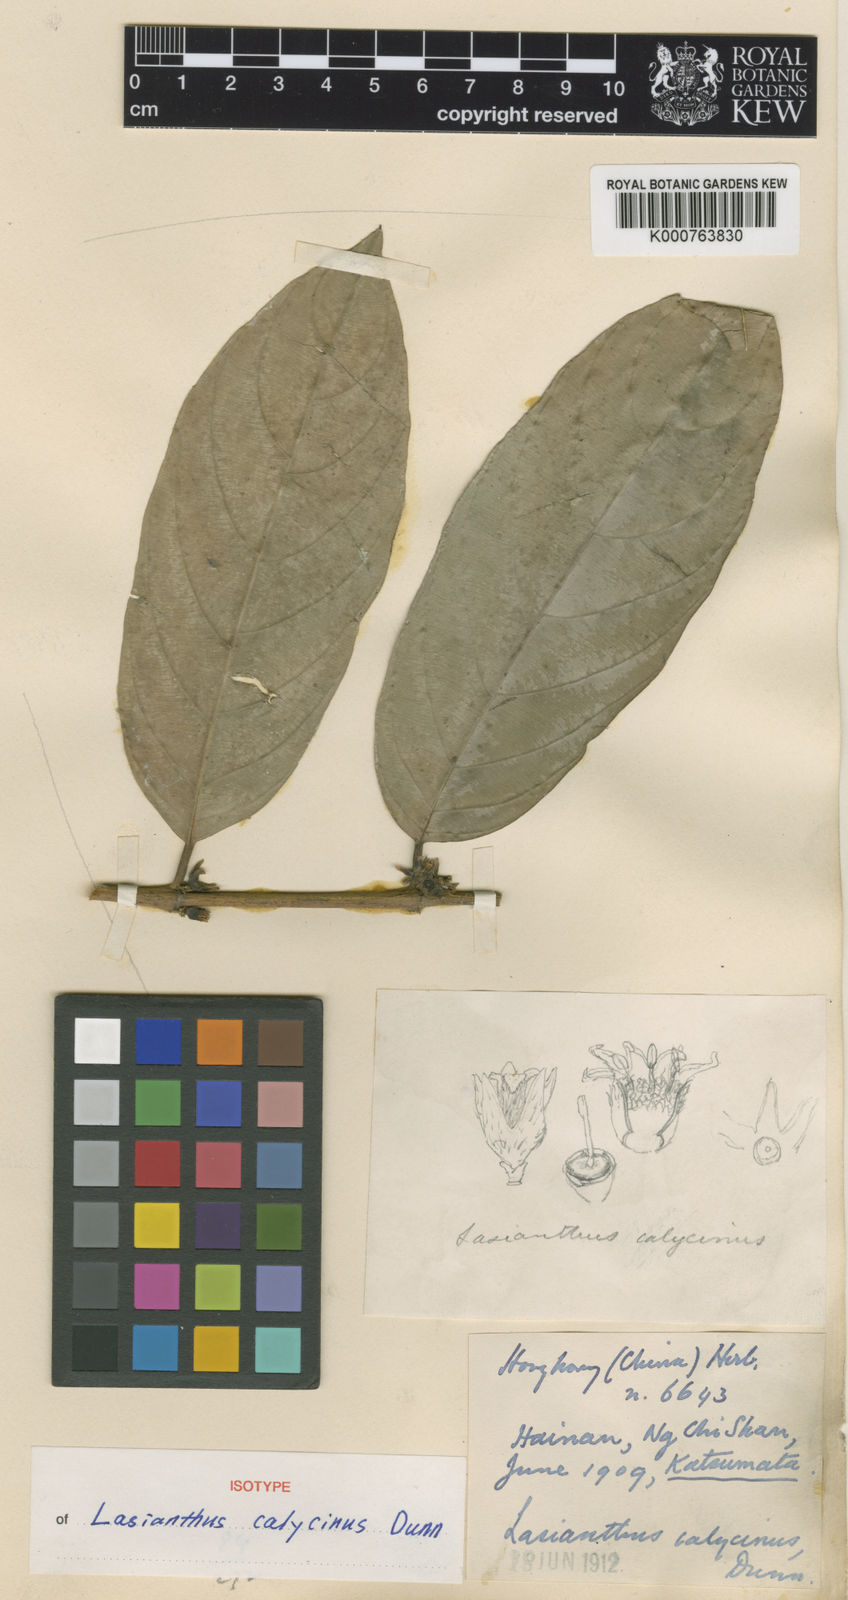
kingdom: Plantae
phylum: Tracheophyta
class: Magnoliopsida
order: Gentianales
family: Rubiaceae
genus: Lasianthus
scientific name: Lasianthus calycinus
